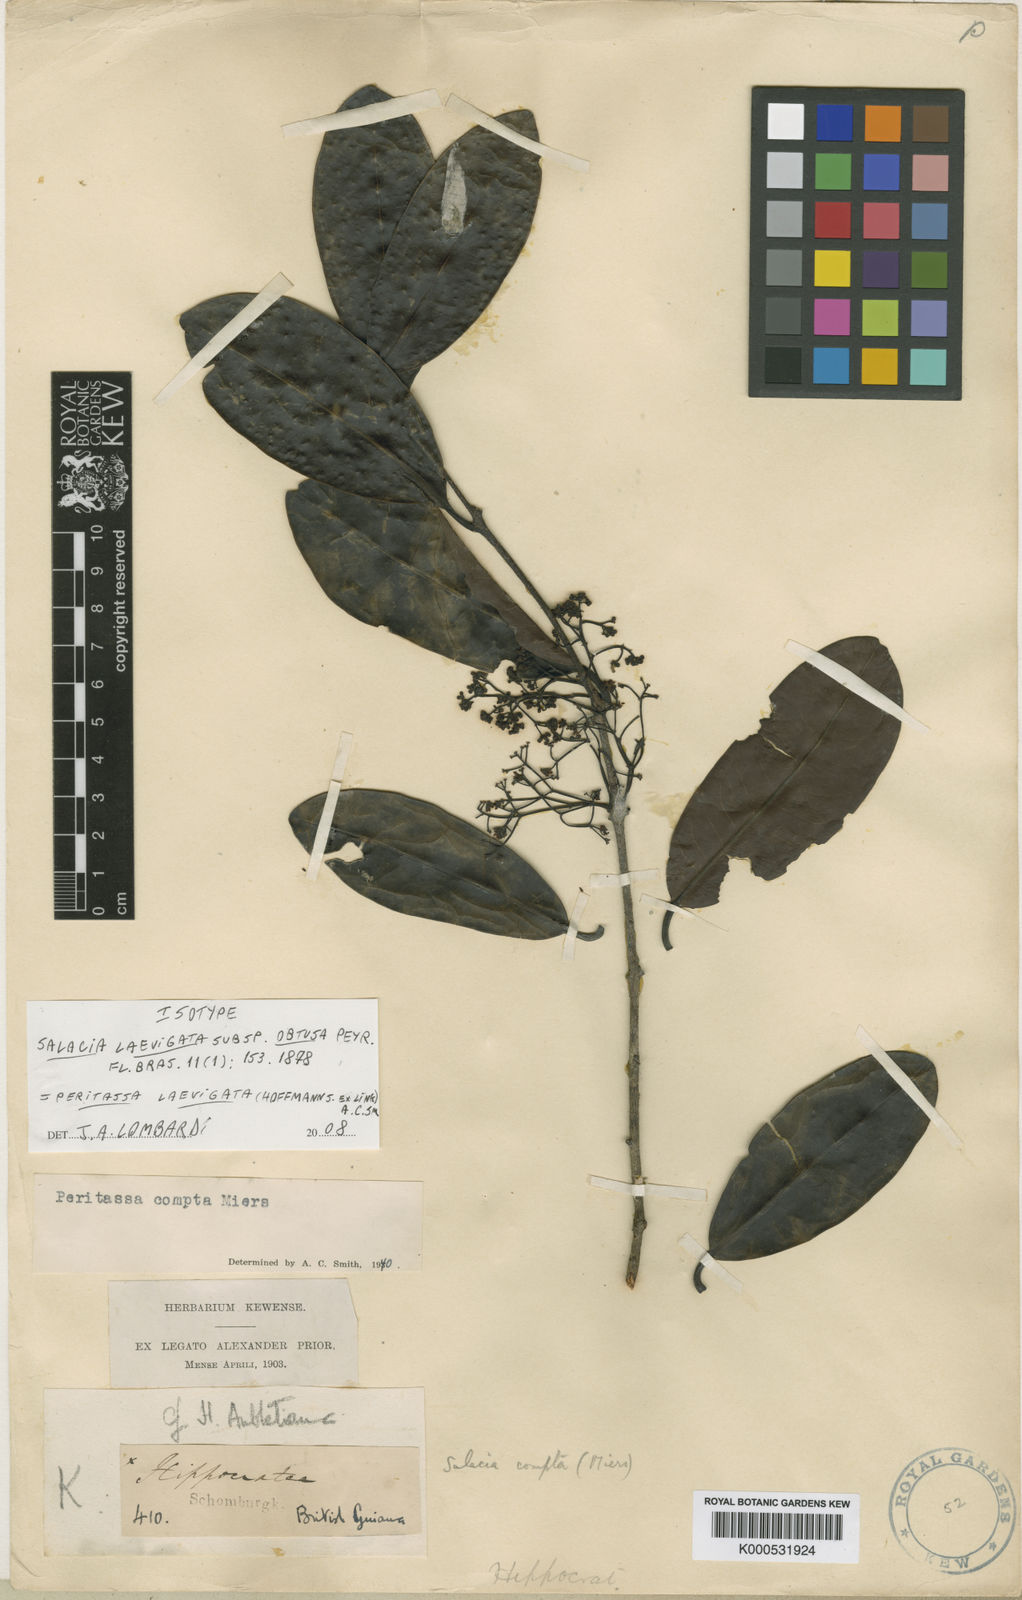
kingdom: Plantae
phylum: Tracheophyta
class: Magnoliopsida
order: Celastrales
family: Celastraceae
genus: Peritassa
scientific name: Peritassa laevigata
